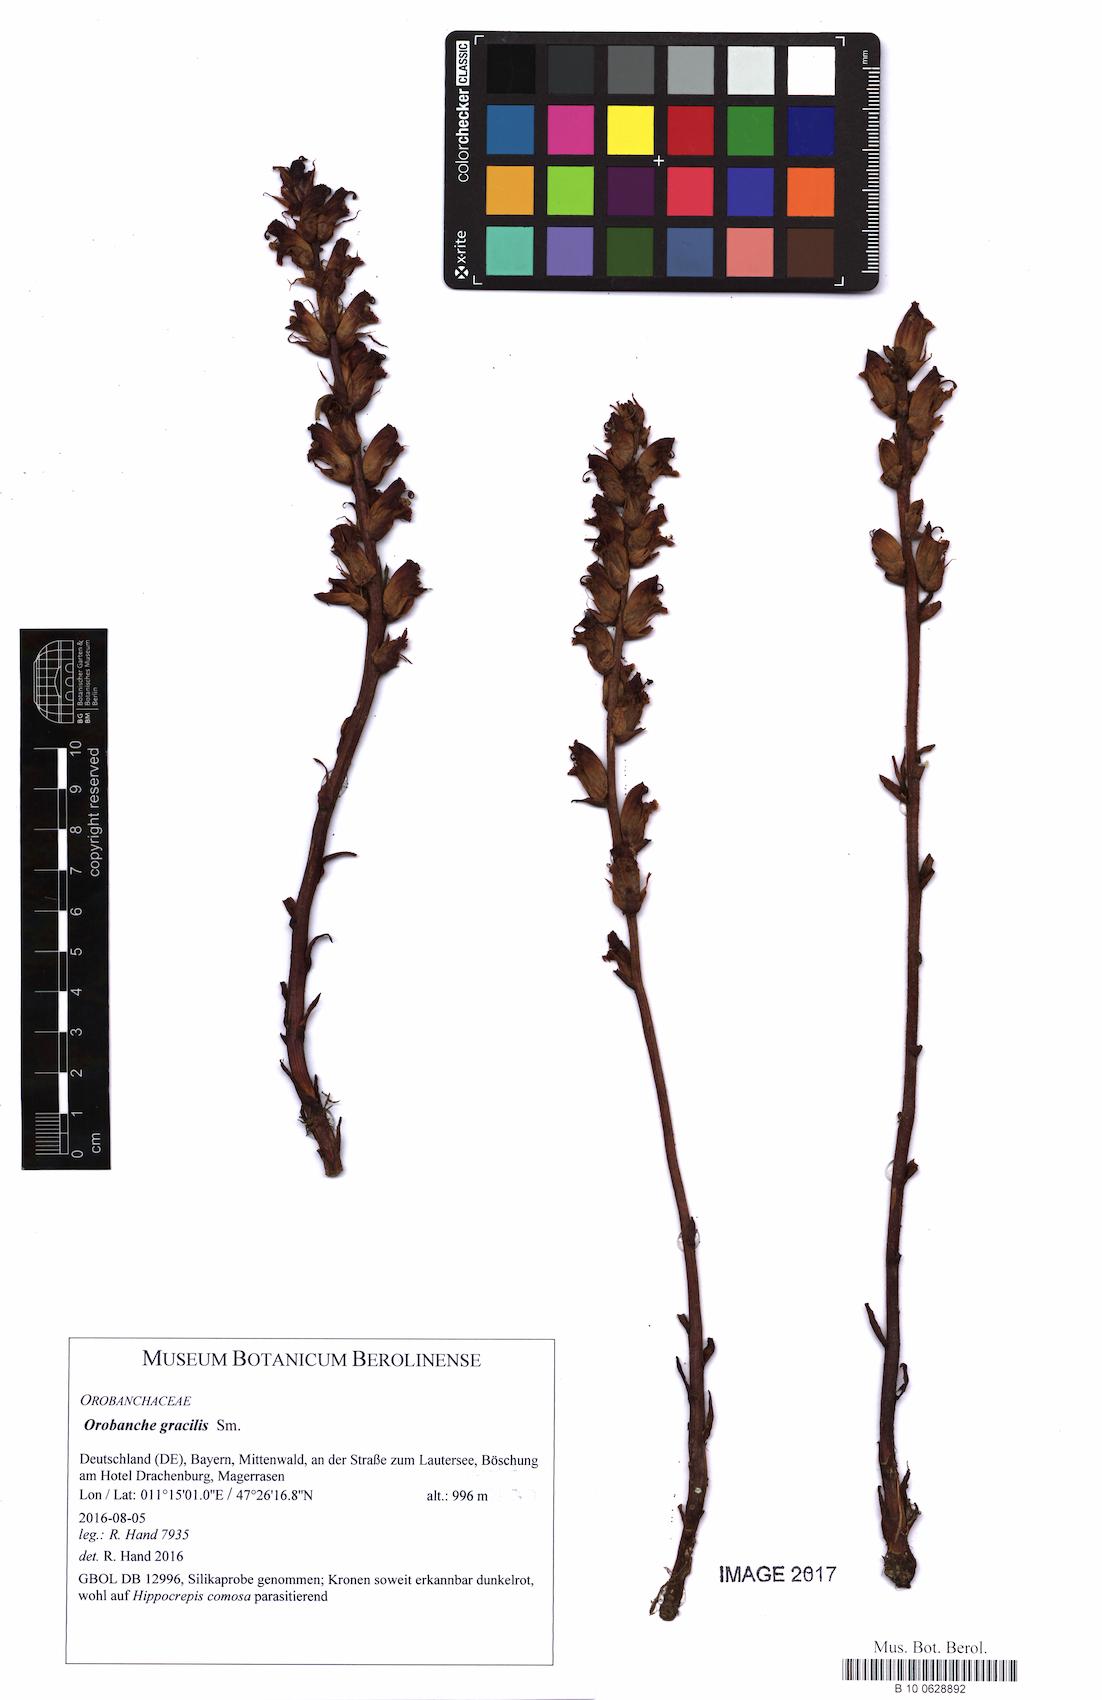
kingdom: Plantae
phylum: Tracheophyta
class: Magnoliopsida
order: Lamiales
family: Orobanchaceae
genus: Orobanche
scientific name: Orobanche gracilis
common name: Slender broomrape
